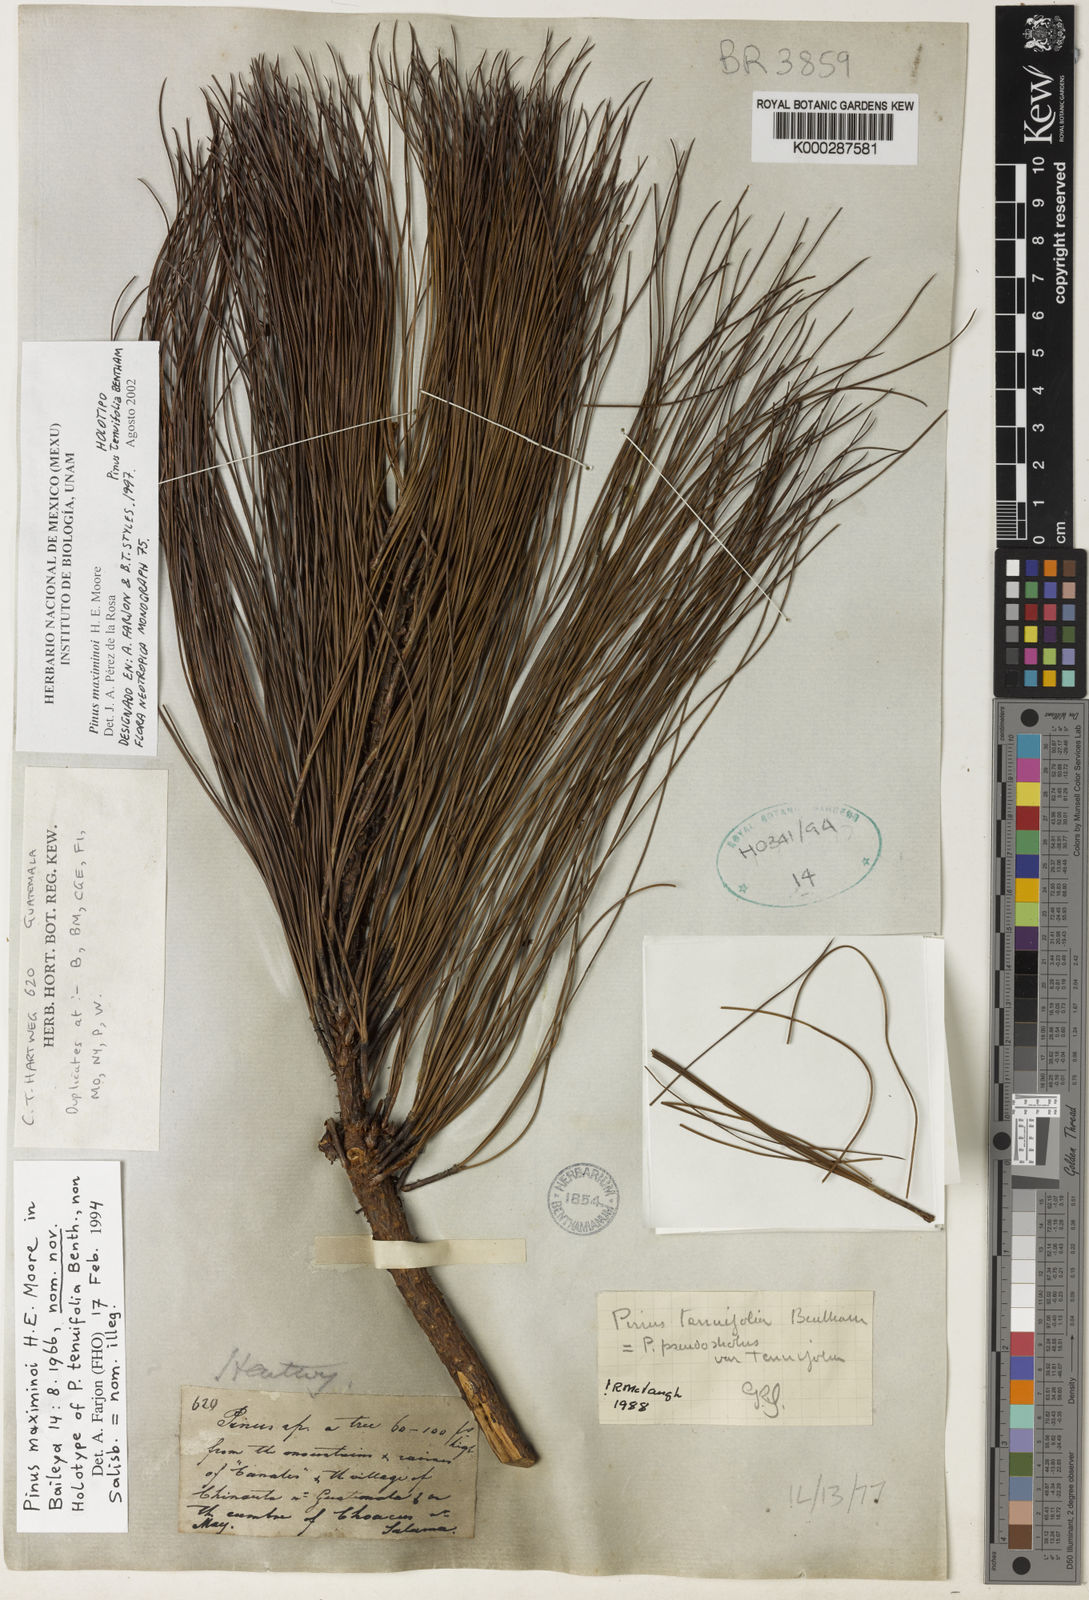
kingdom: Plantae
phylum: Tracheophyta
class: Pinopsida
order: Pinales
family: Pinaceae
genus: Pinus
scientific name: Pinus maximinoi
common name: Thin-leaf pine
